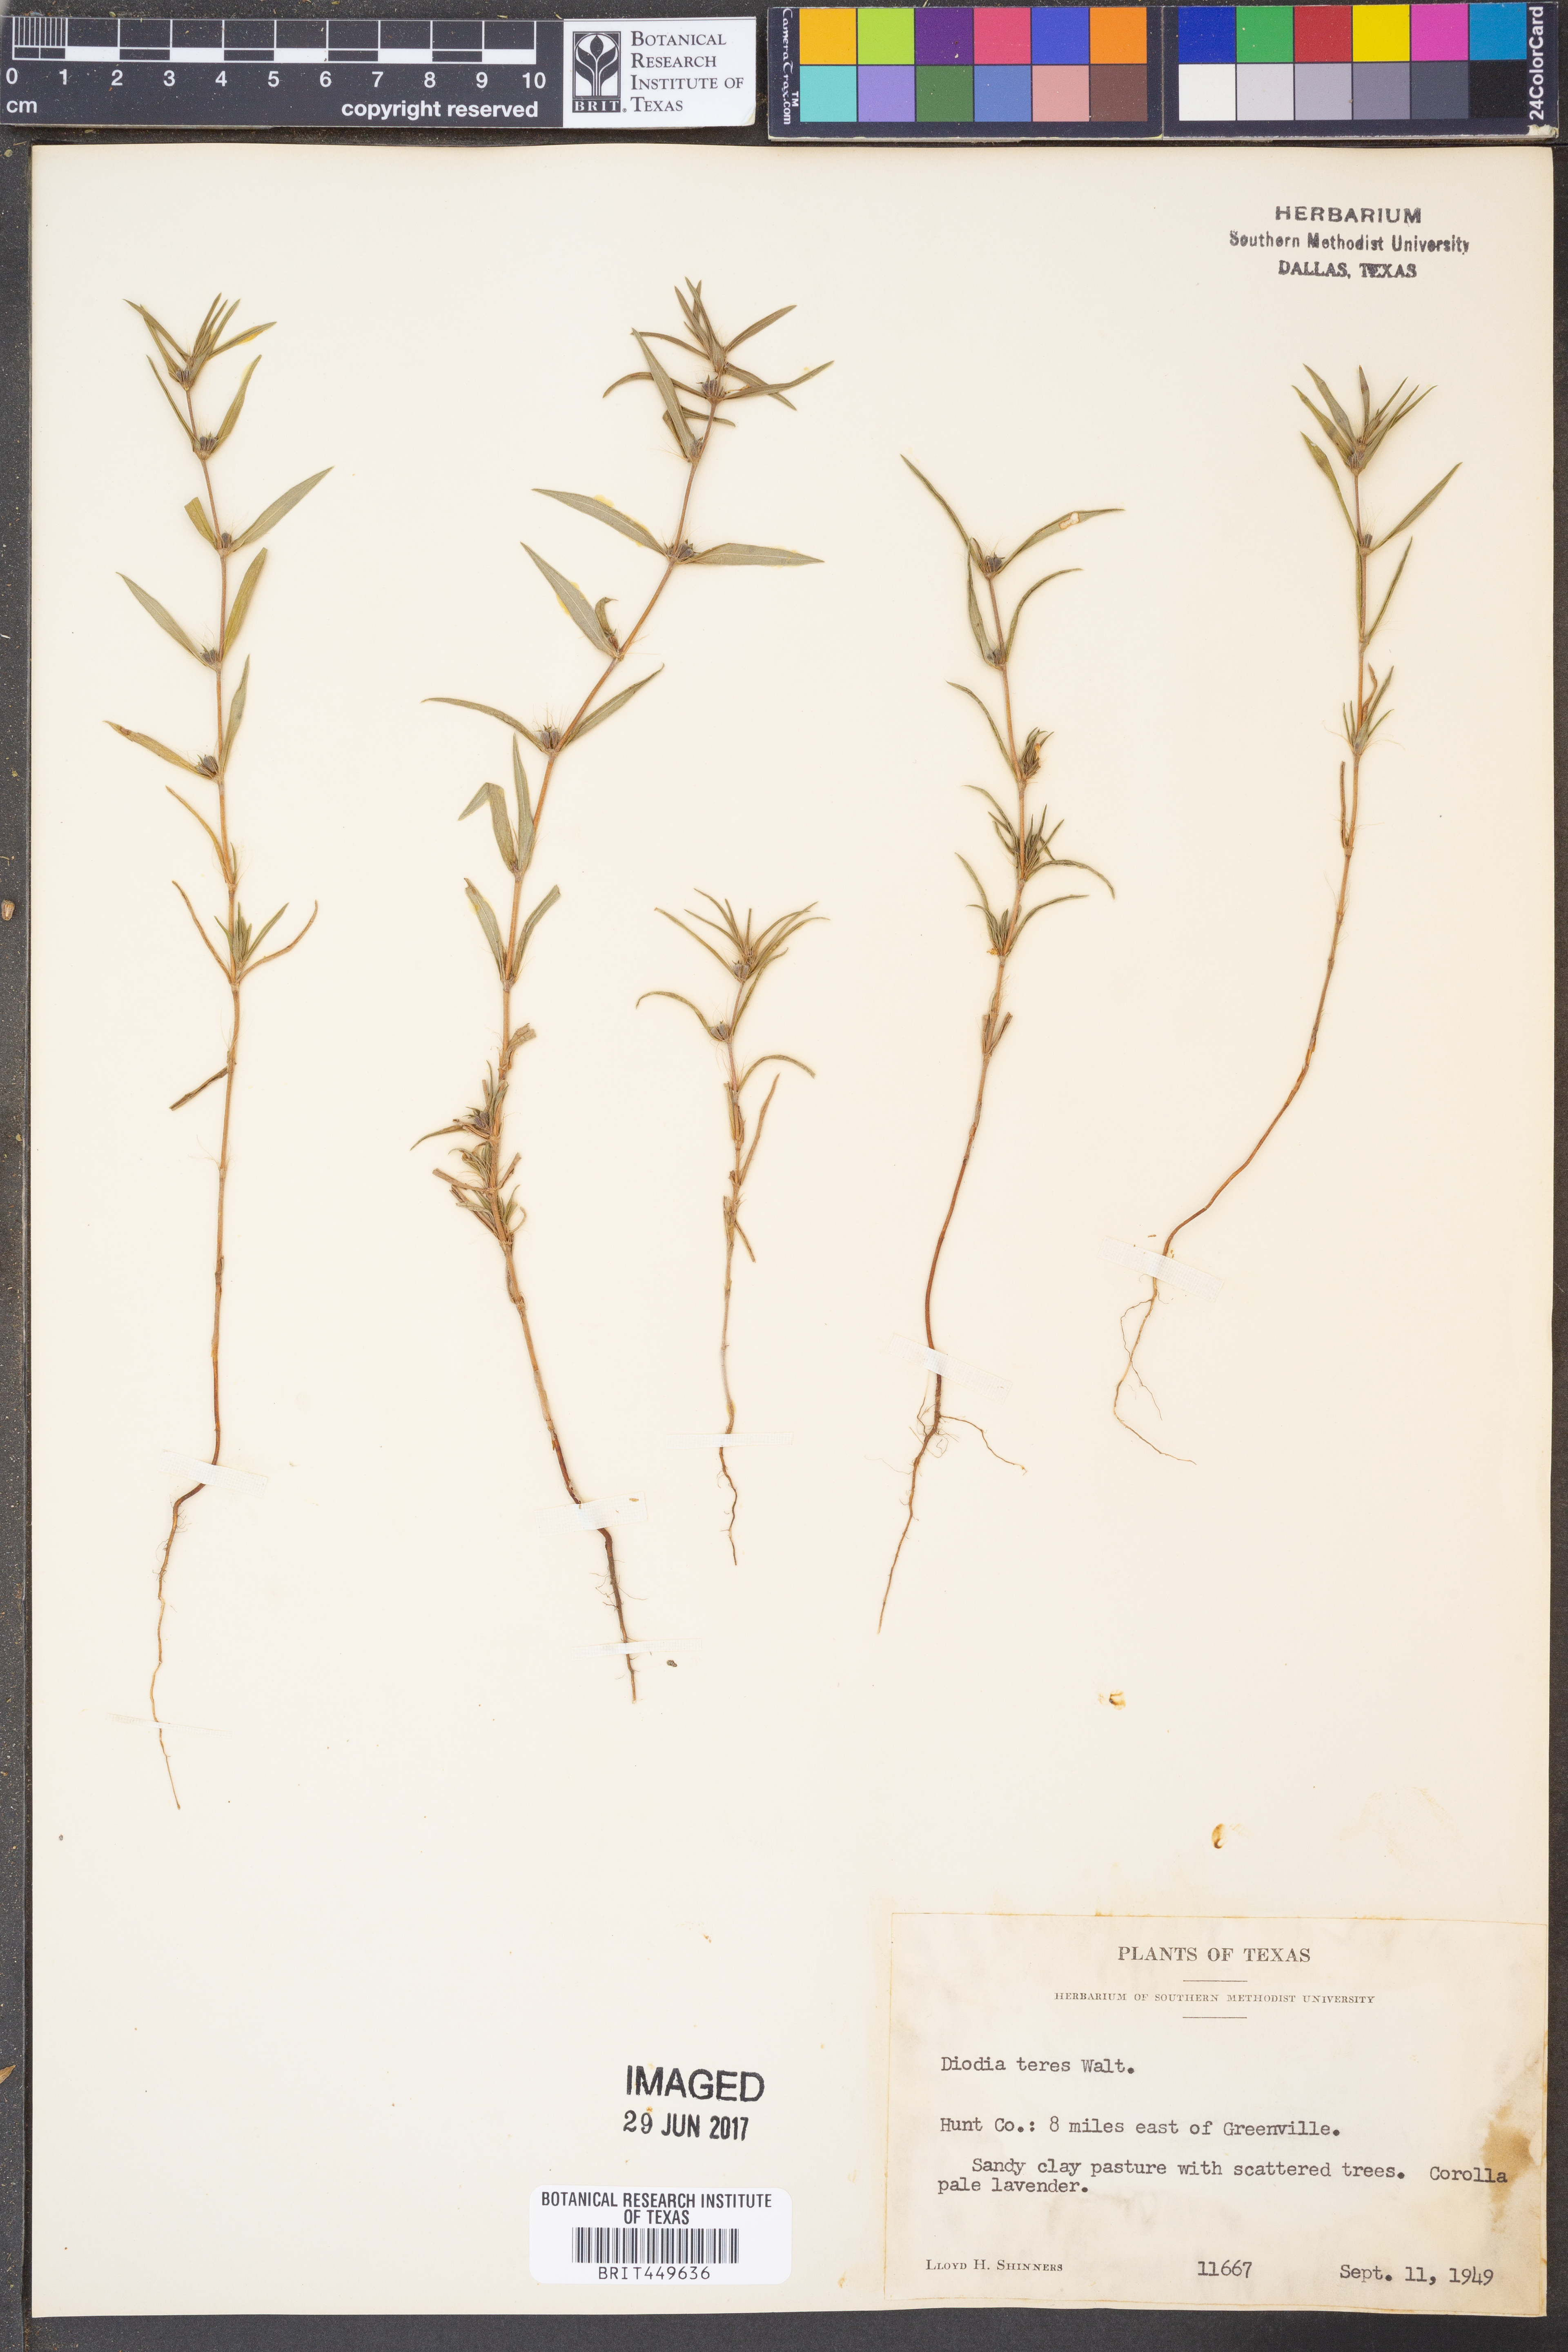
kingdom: Plantae
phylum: Tracheophyta
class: Magnoliopsida
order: Gentianales
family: Rubiaceae
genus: Hexasepalum
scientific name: Hexasepalum teres
